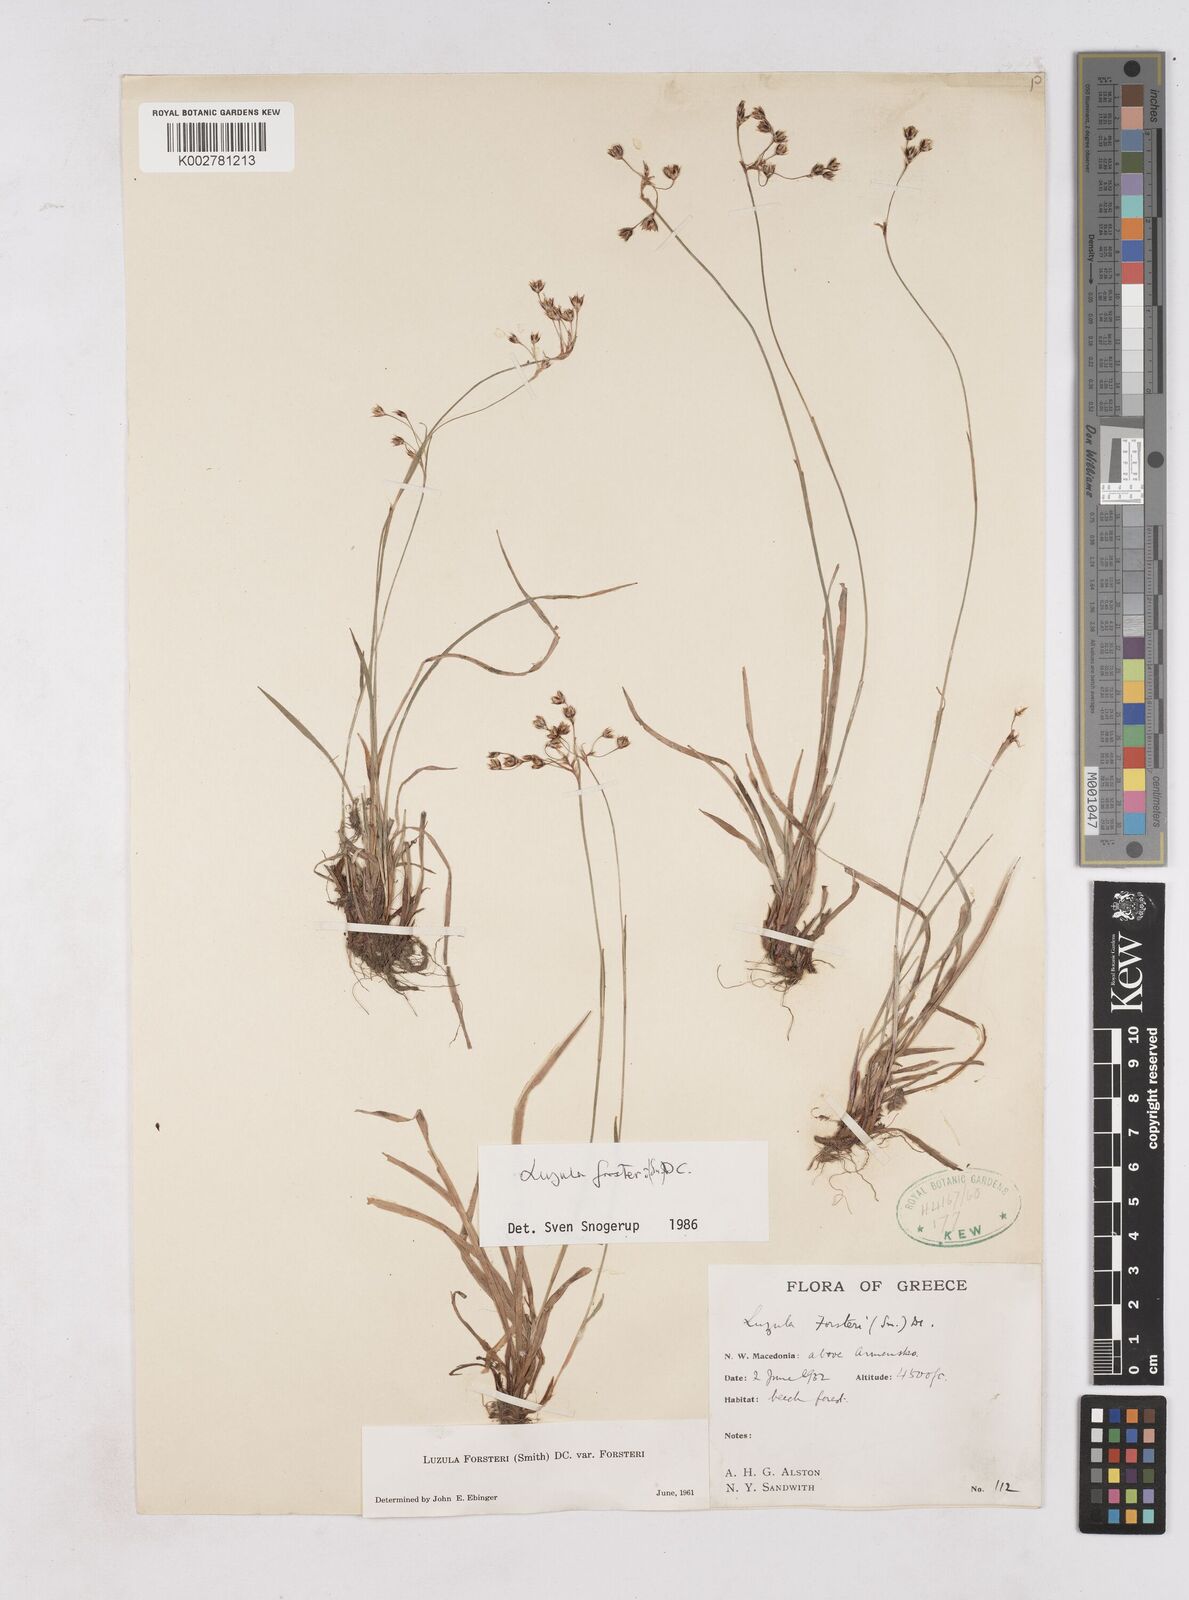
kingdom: Plantae
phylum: Tracheophyta
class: Liliopsida
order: Poales
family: Juncaceae
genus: Luzula
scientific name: Luzula forsteri
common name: Southern wood-rush
